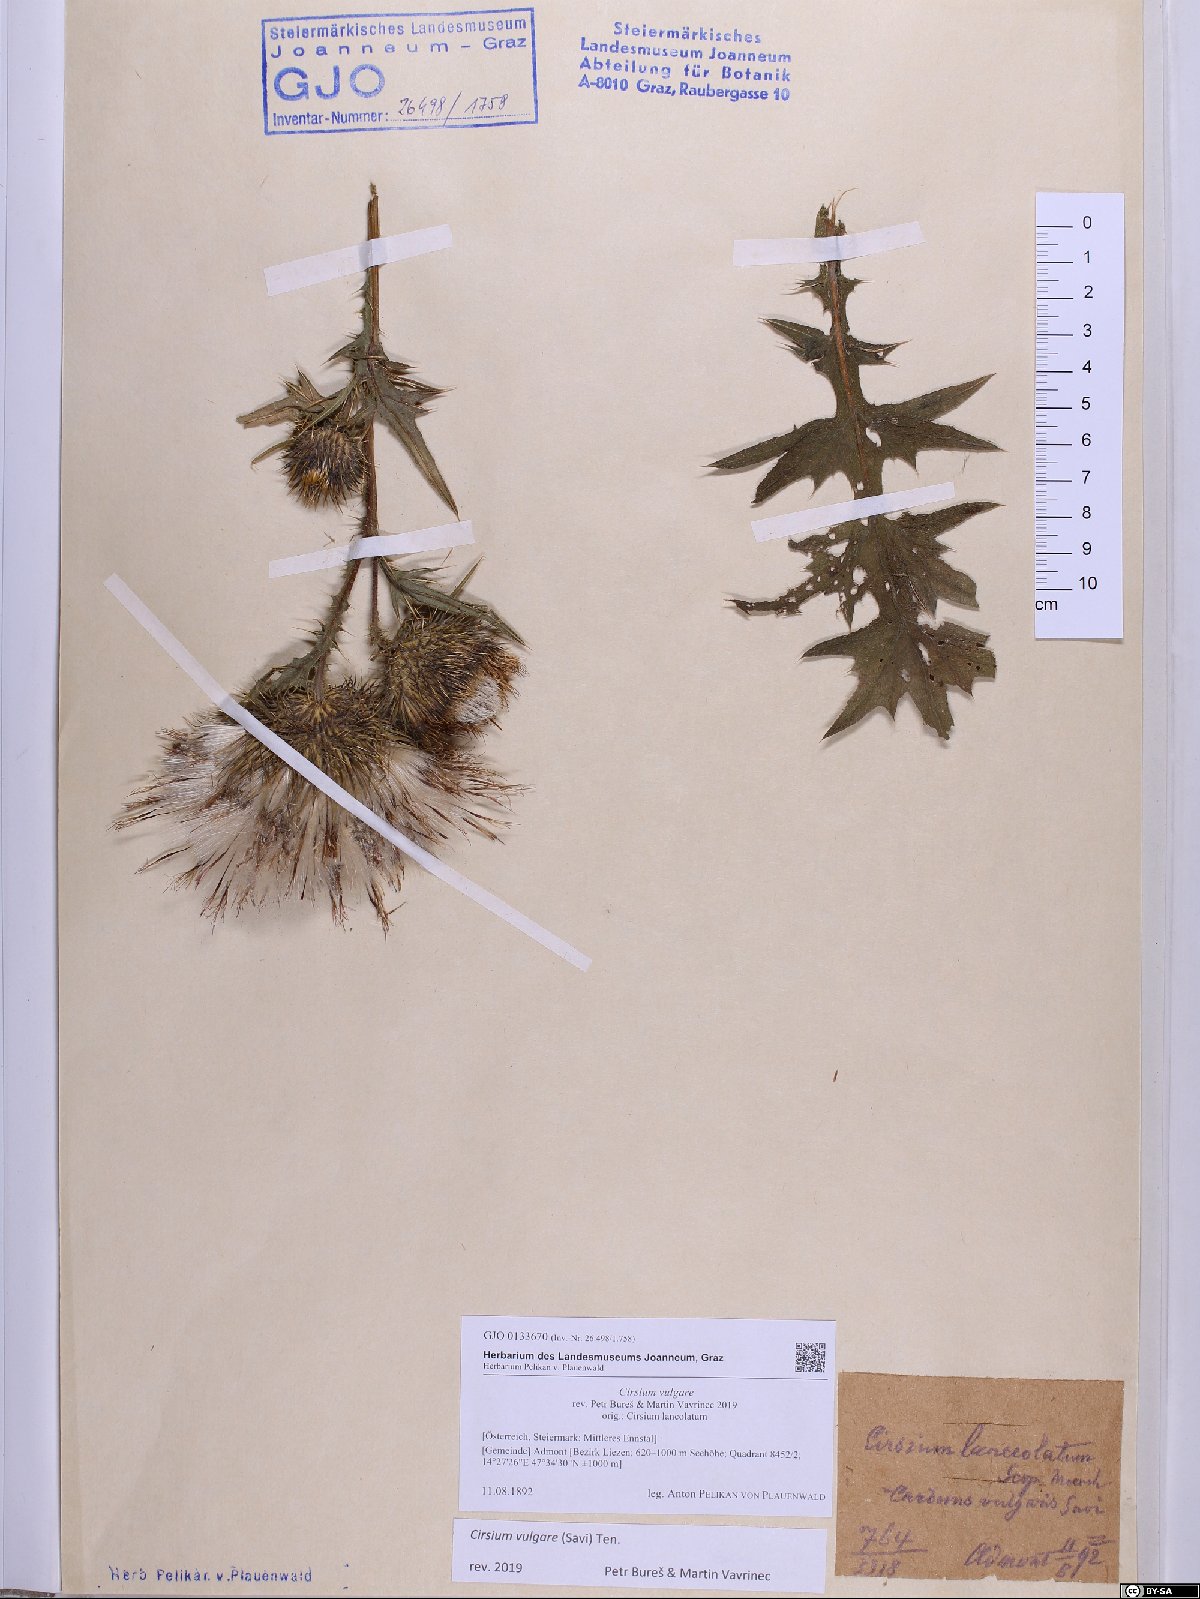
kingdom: Plantae
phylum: Tracheophyta
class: Magnoliopsida
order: Asterales
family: Asteraceae
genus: Cirsium
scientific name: Cirsium vulgare
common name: Bull thistle
